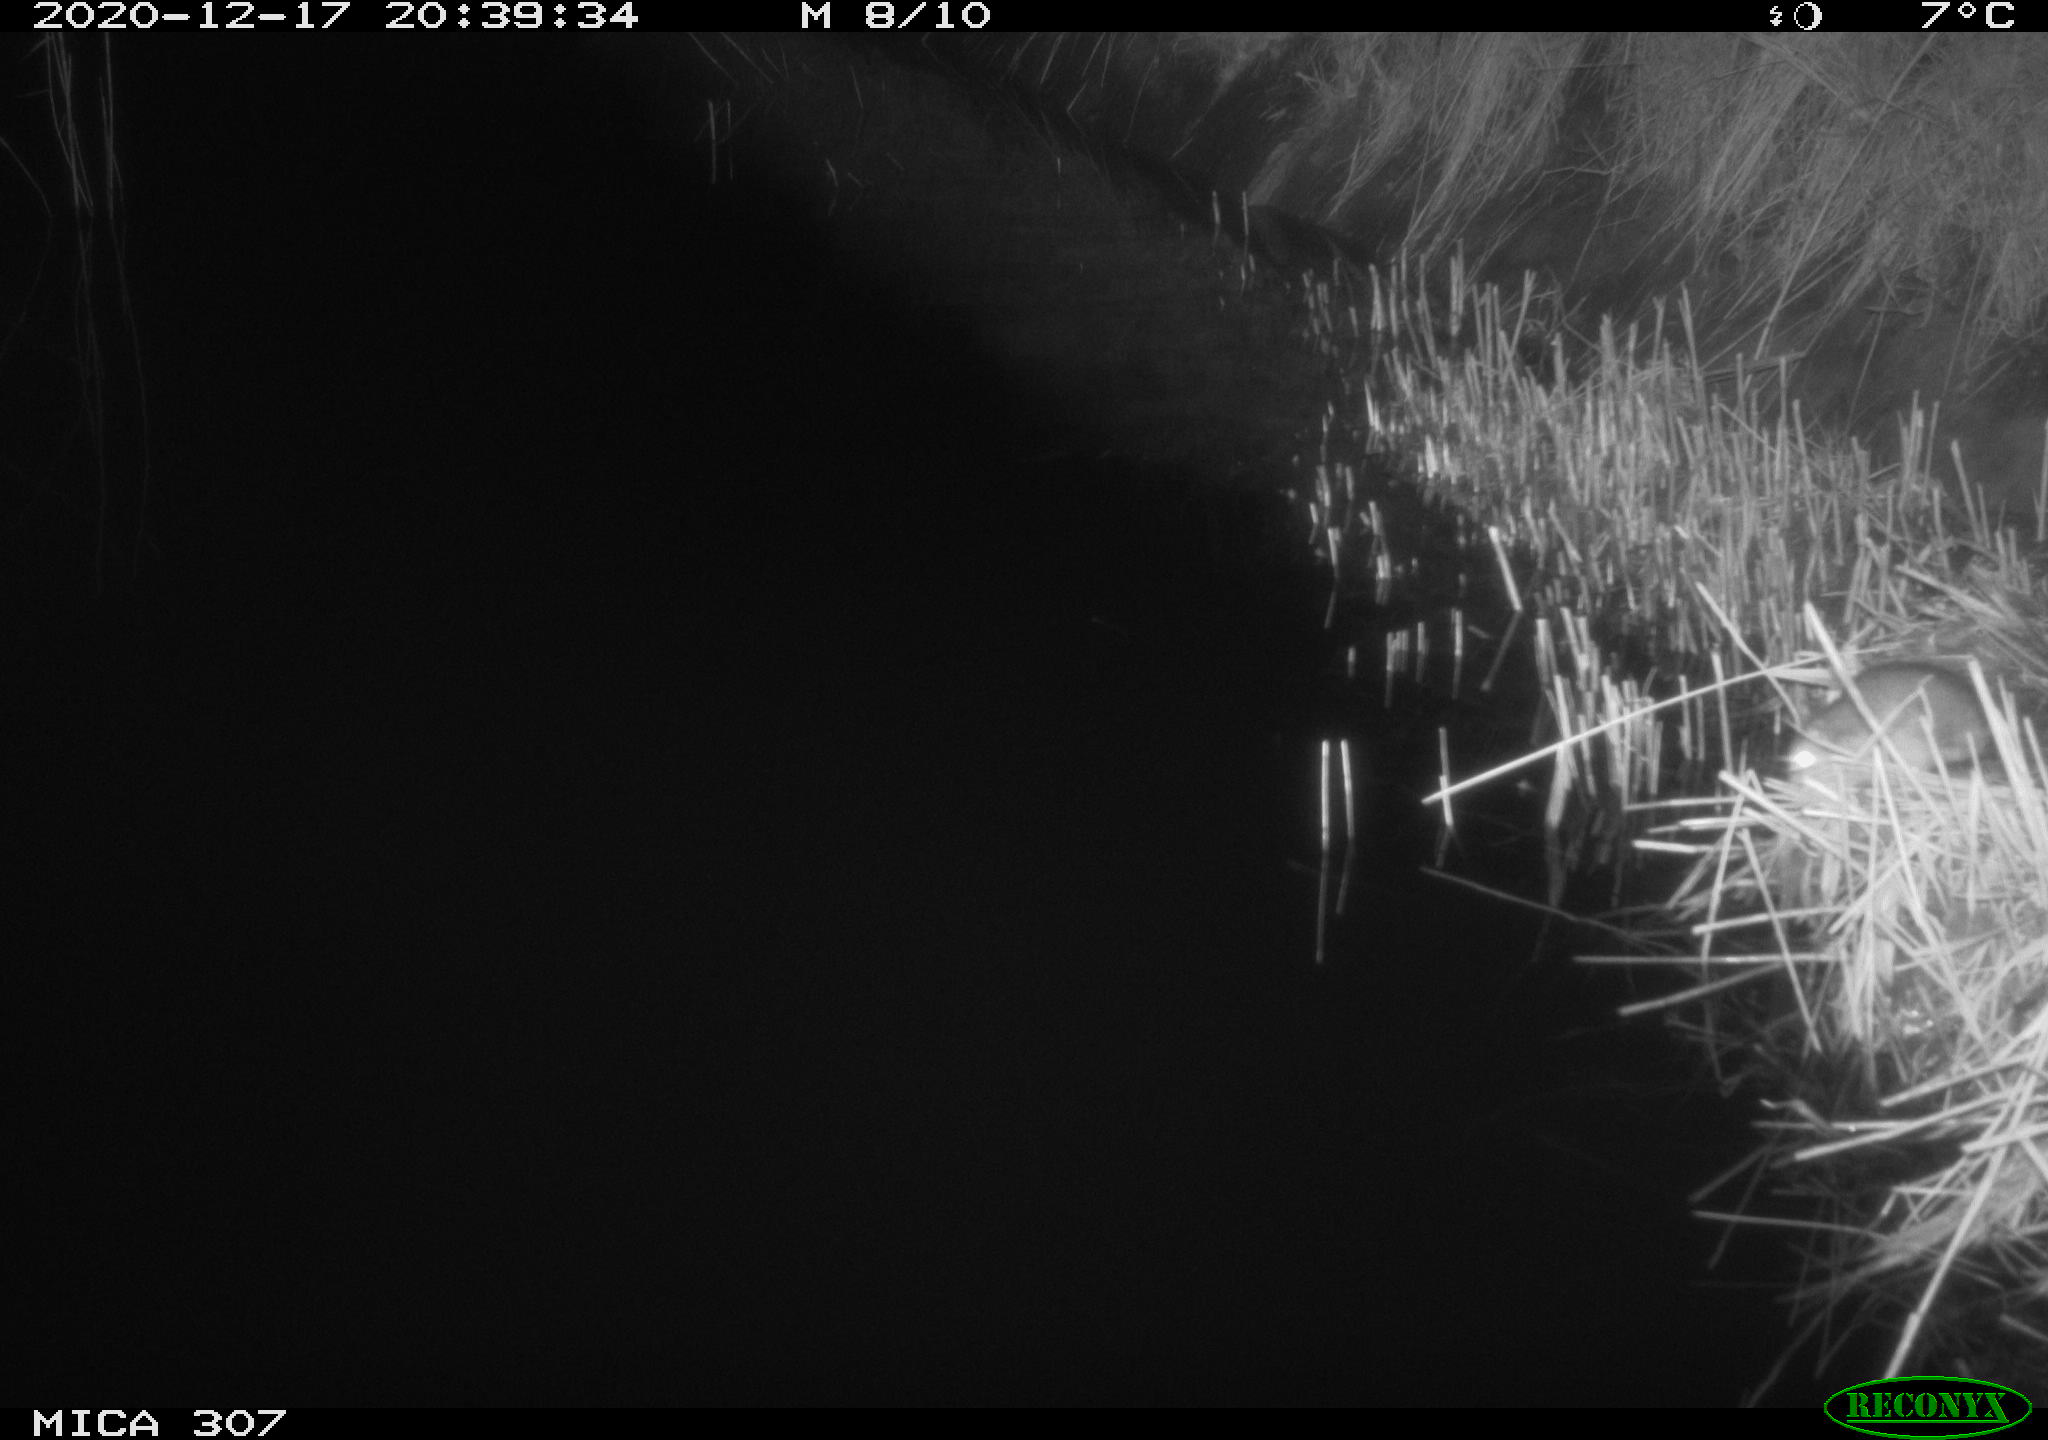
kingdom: Animalia
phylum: Chordata
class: Mammalia
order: Rodentia
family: Muridae
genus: Rattus
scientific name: Rattus norvegicus
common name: Brown rat
